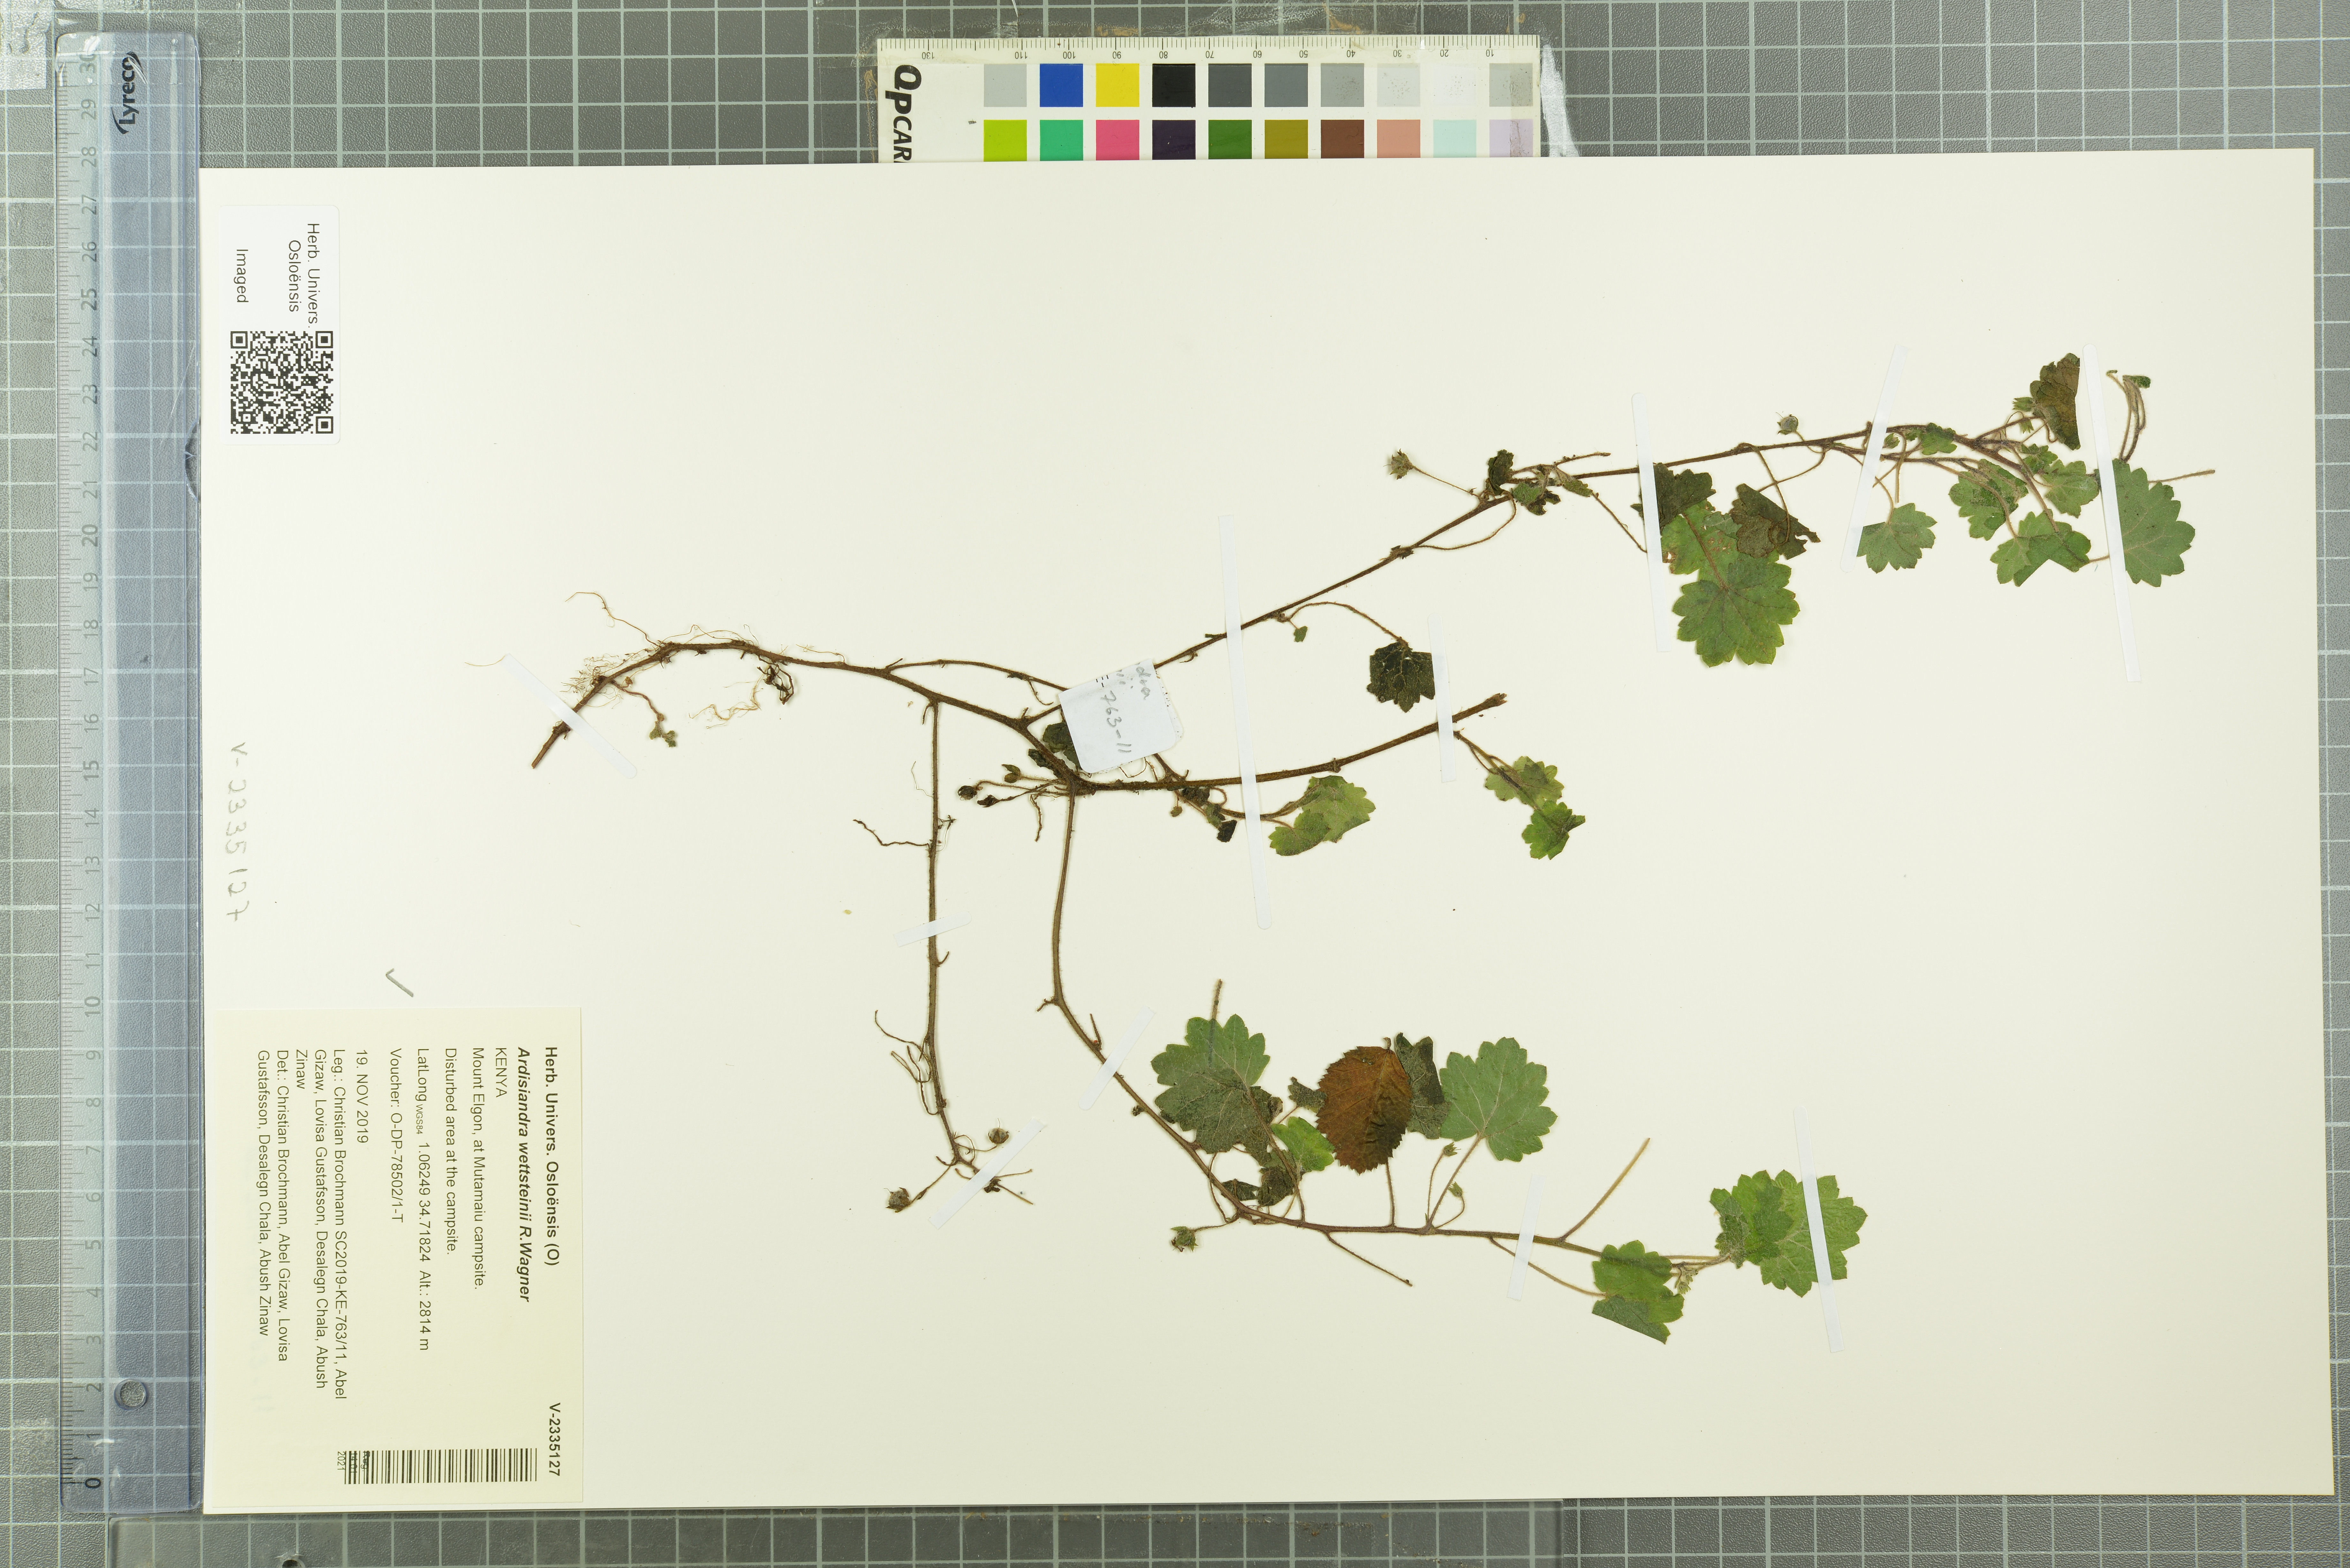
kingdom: Plantae
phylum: Tracheophyta
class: Magnoliopsida
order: Ericales
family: Primulaceae
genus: Ardisiandra
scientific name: Ardisiandra wettsteinii
